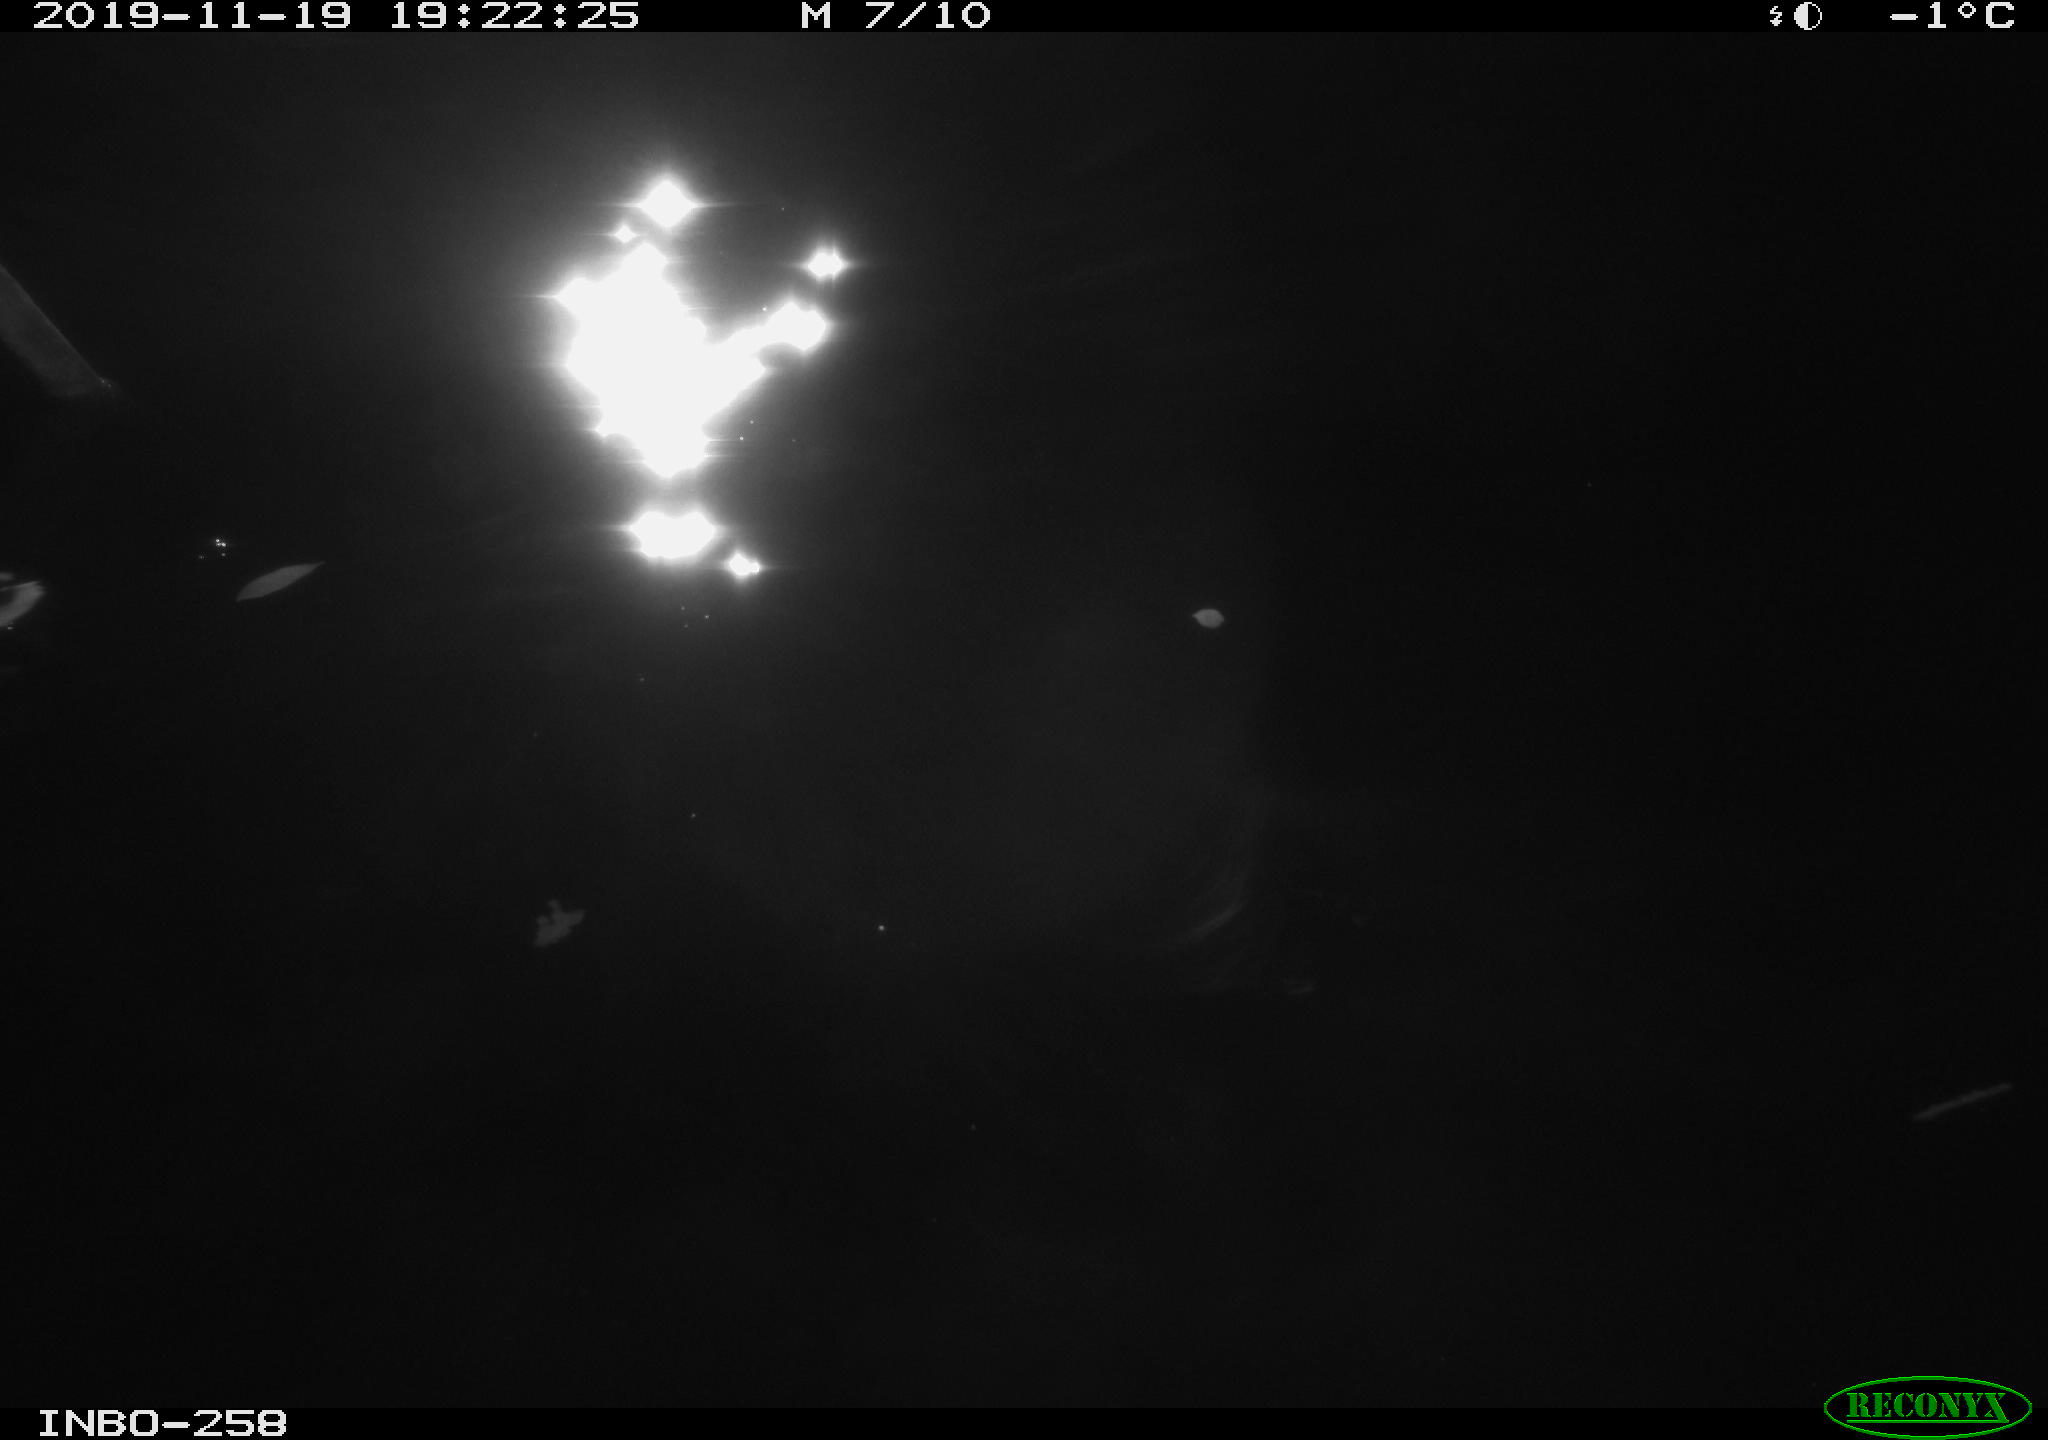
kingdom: Animalia
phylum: Chordata
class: Aves
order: Anseriformes
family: Anatidae
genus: Anas
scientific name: Anas platyrhynchos
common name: Mallard
